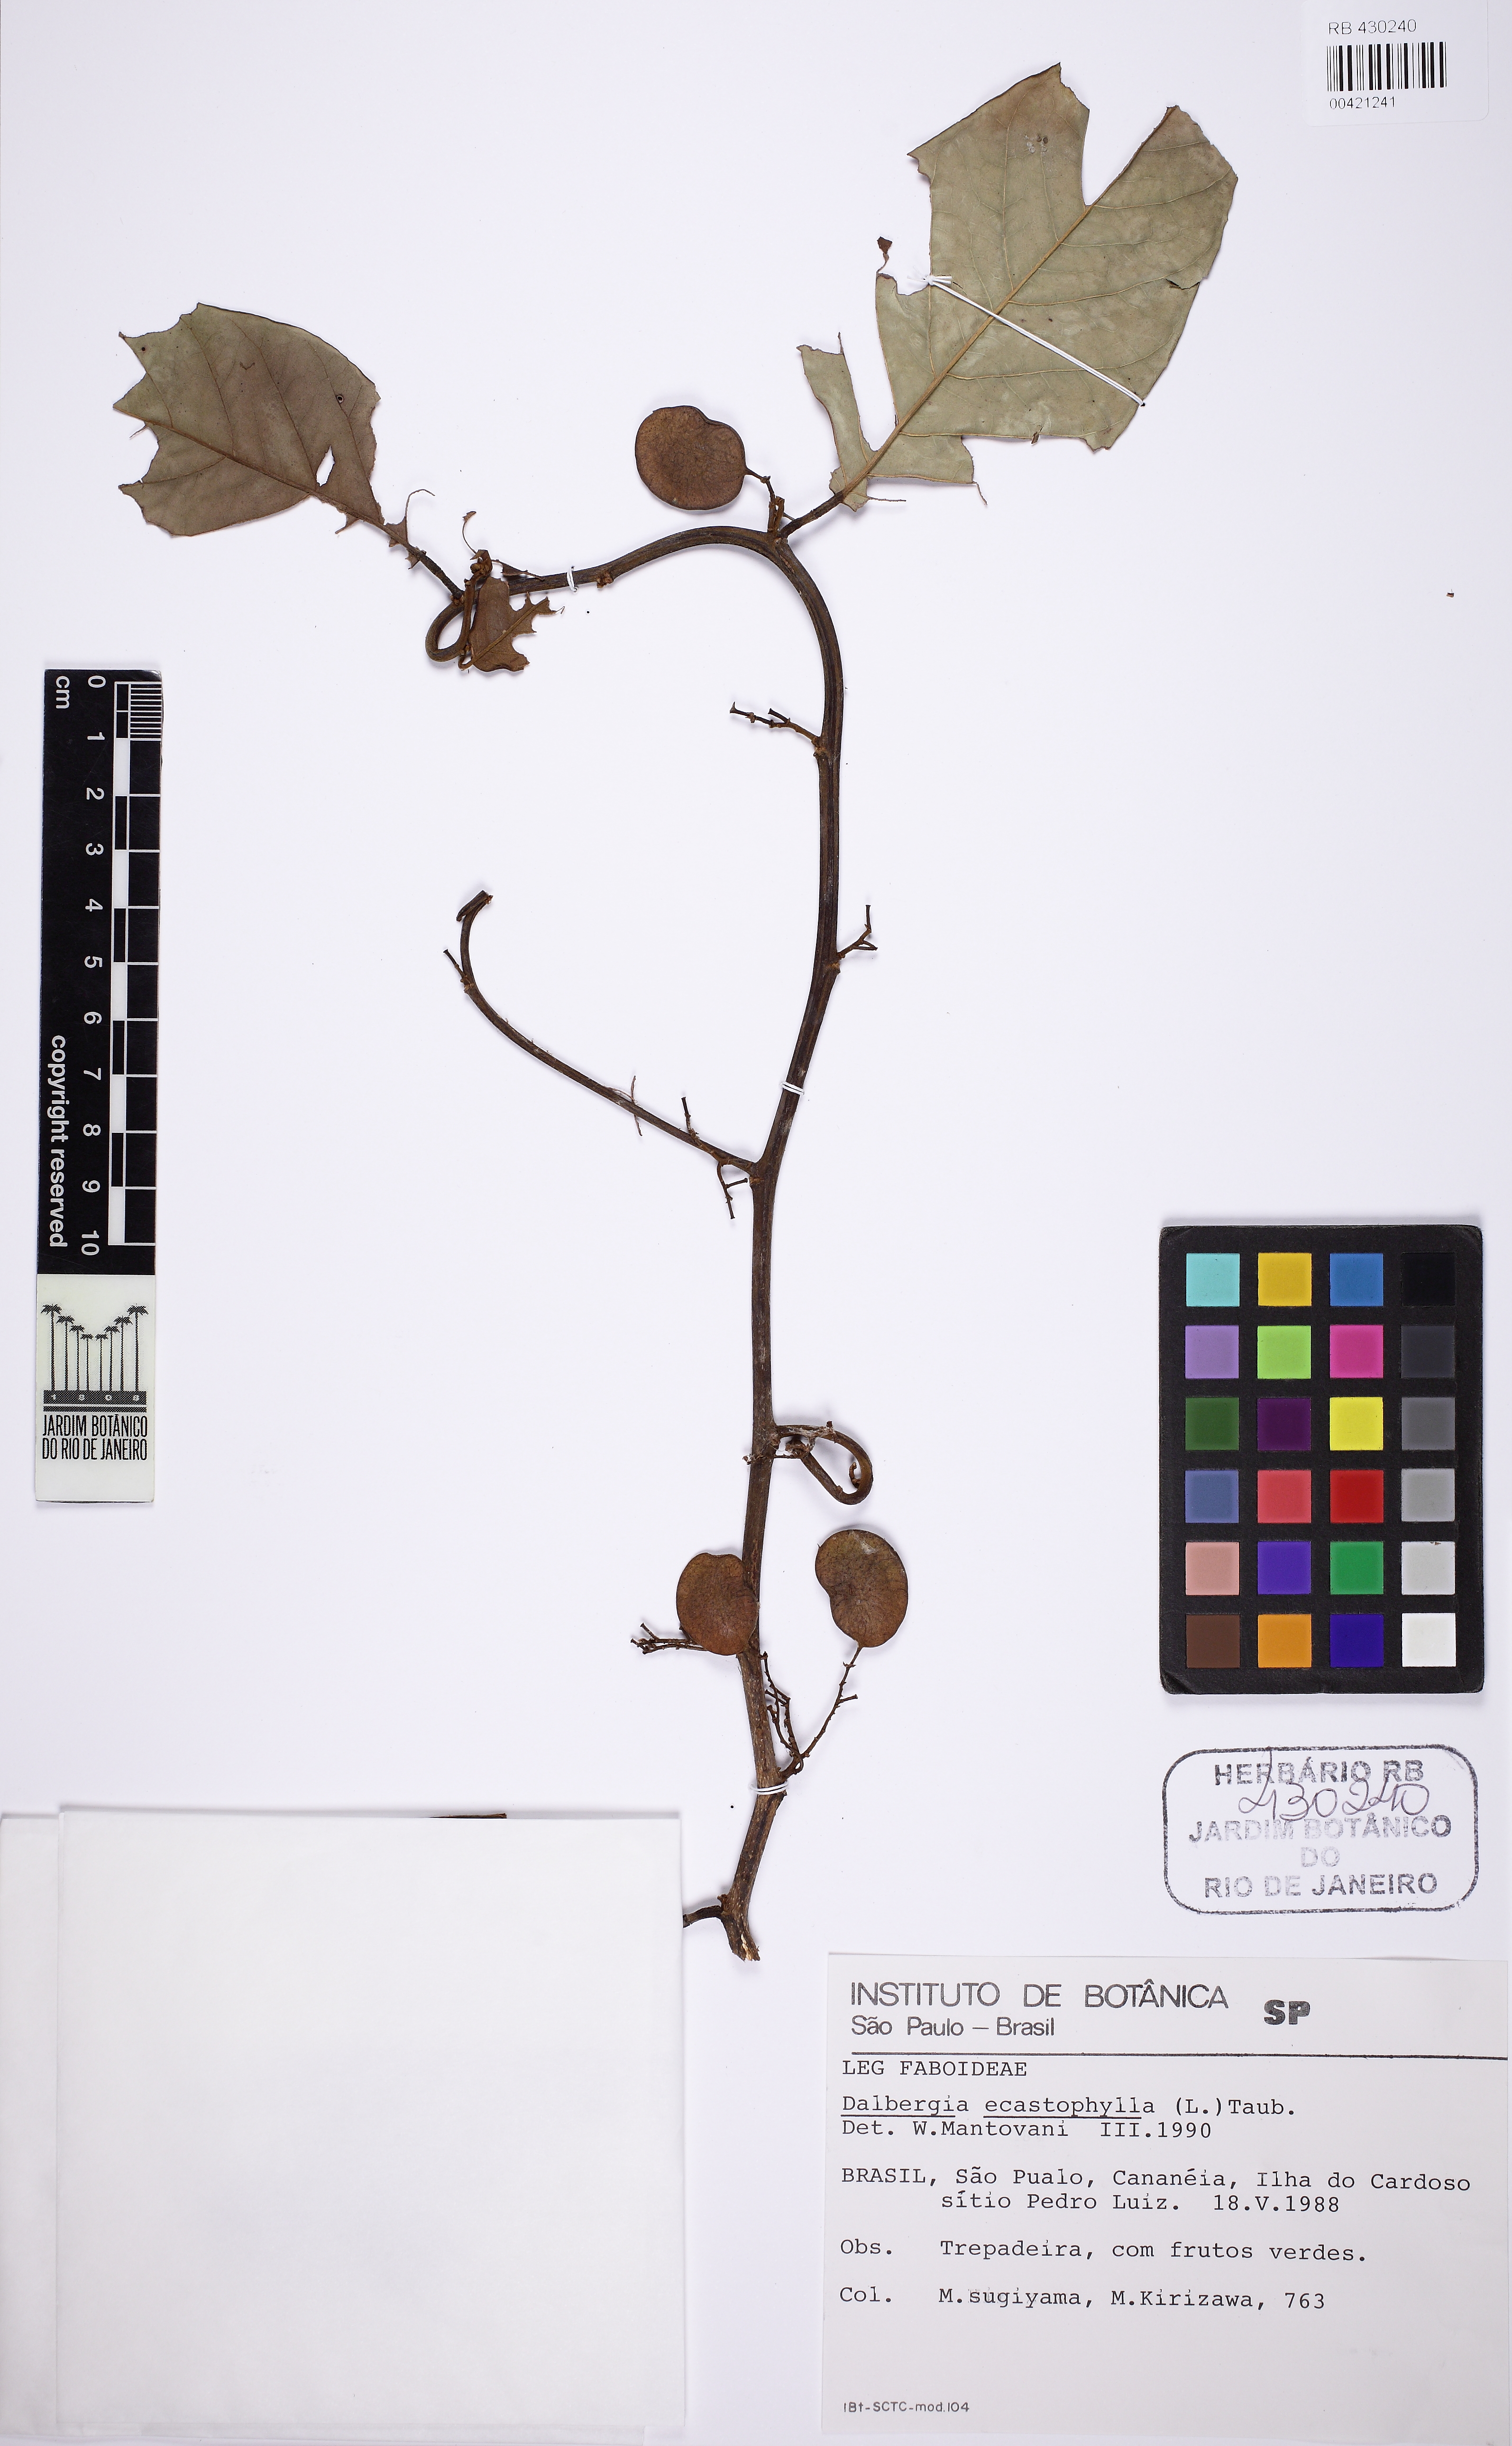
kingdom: Plantae
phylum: Tracheophyta
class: Magnoliopsida
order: Fabales
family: Fabaceae
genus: Dalbergia
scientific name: Dalbergia ecastaphyllum
